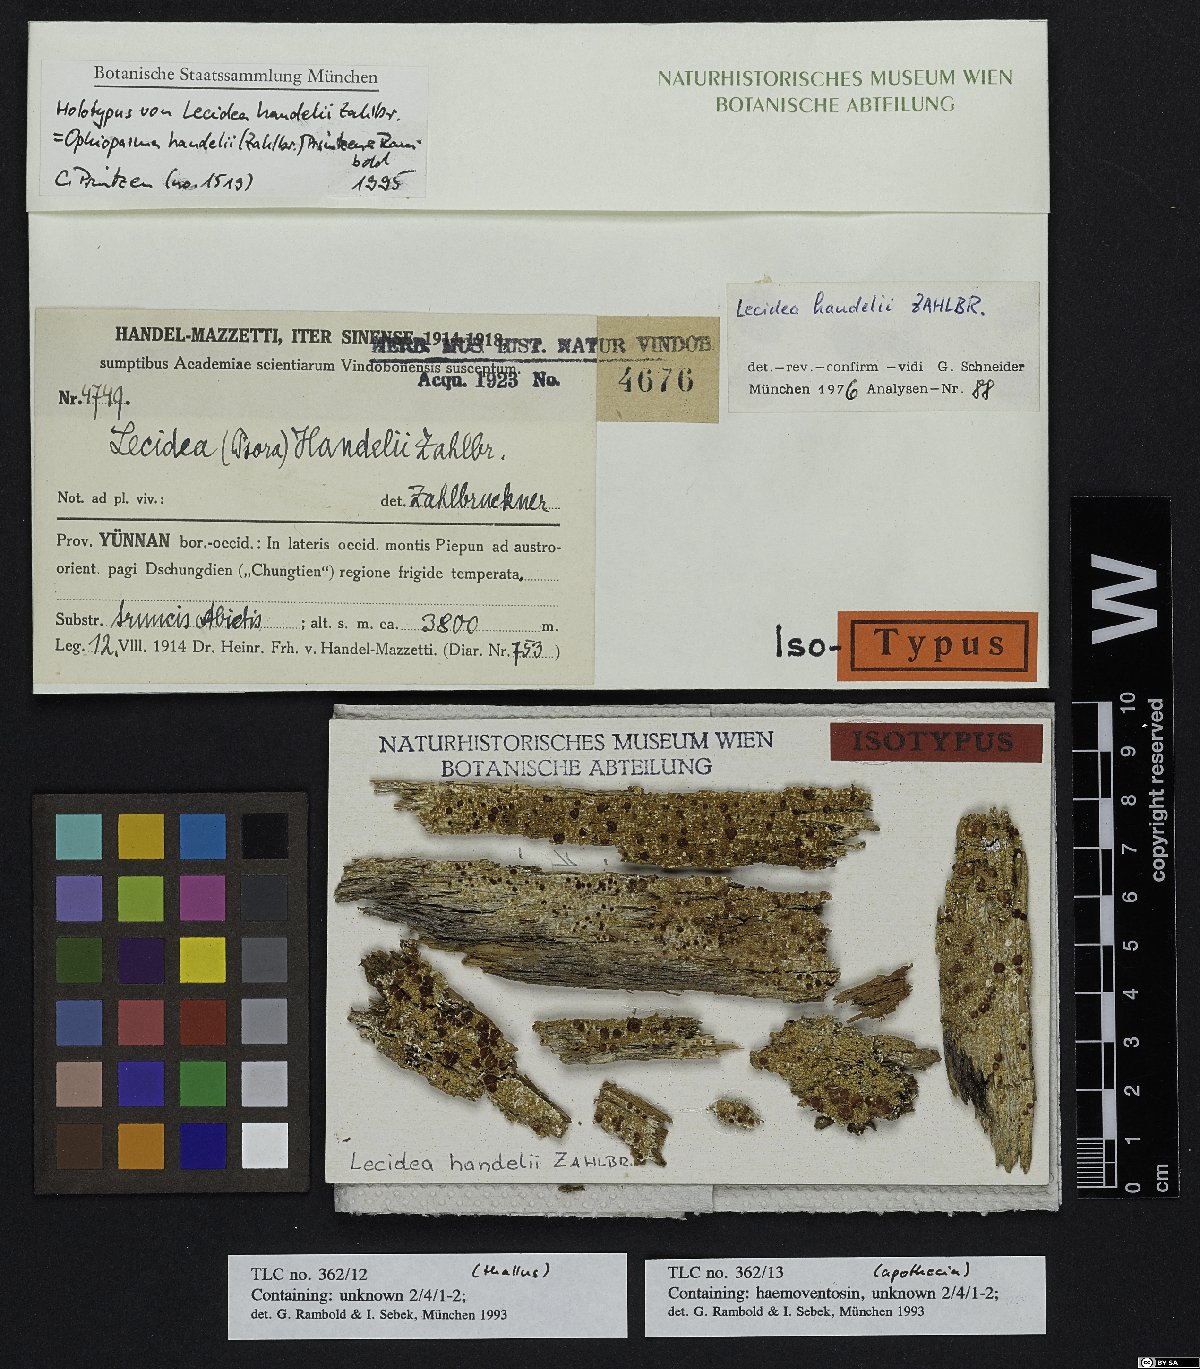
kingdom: Fungi
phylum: Ascomycota
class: Lecanoromycetes
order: Umbilicariales
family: Ophioparmaceae
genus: Ophioparma
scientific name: Ophioparma handelii
